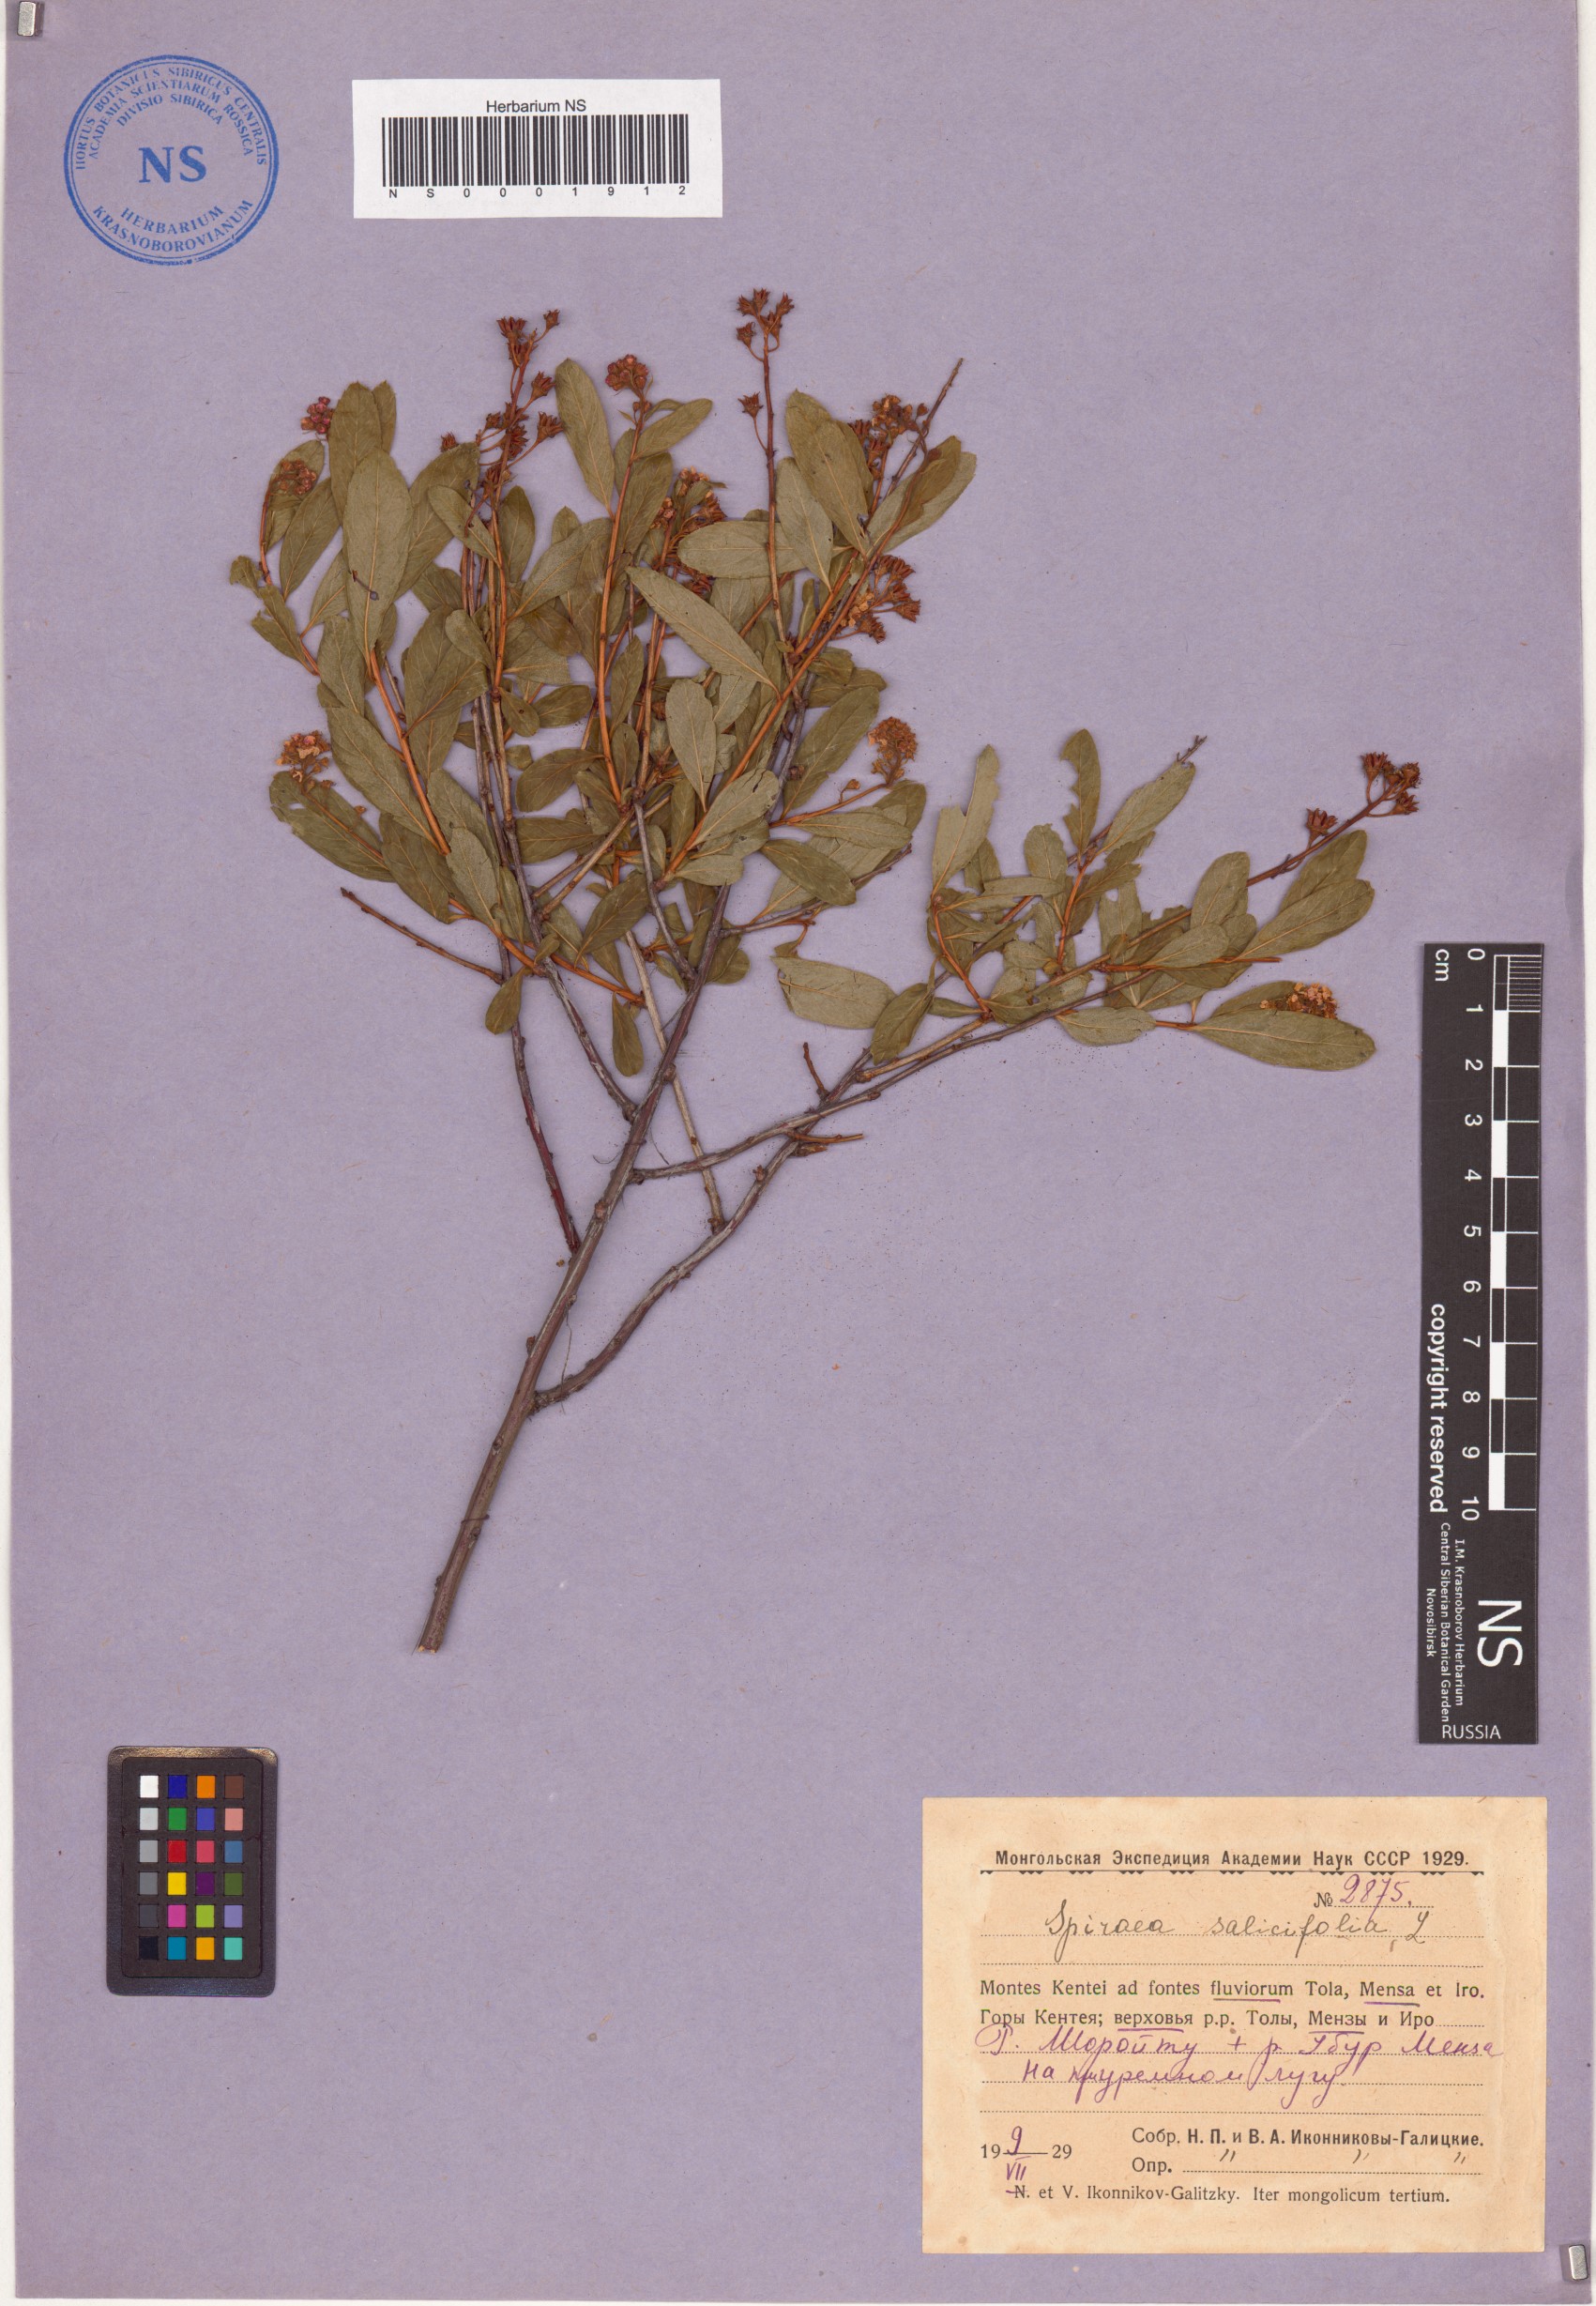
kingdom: Plantae
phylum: Tracheophyta
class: Magnoliopsida
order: Rosales
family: Rosaceae
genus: Spiraea
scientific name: Spiraea salicifolia
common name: Bridewort
